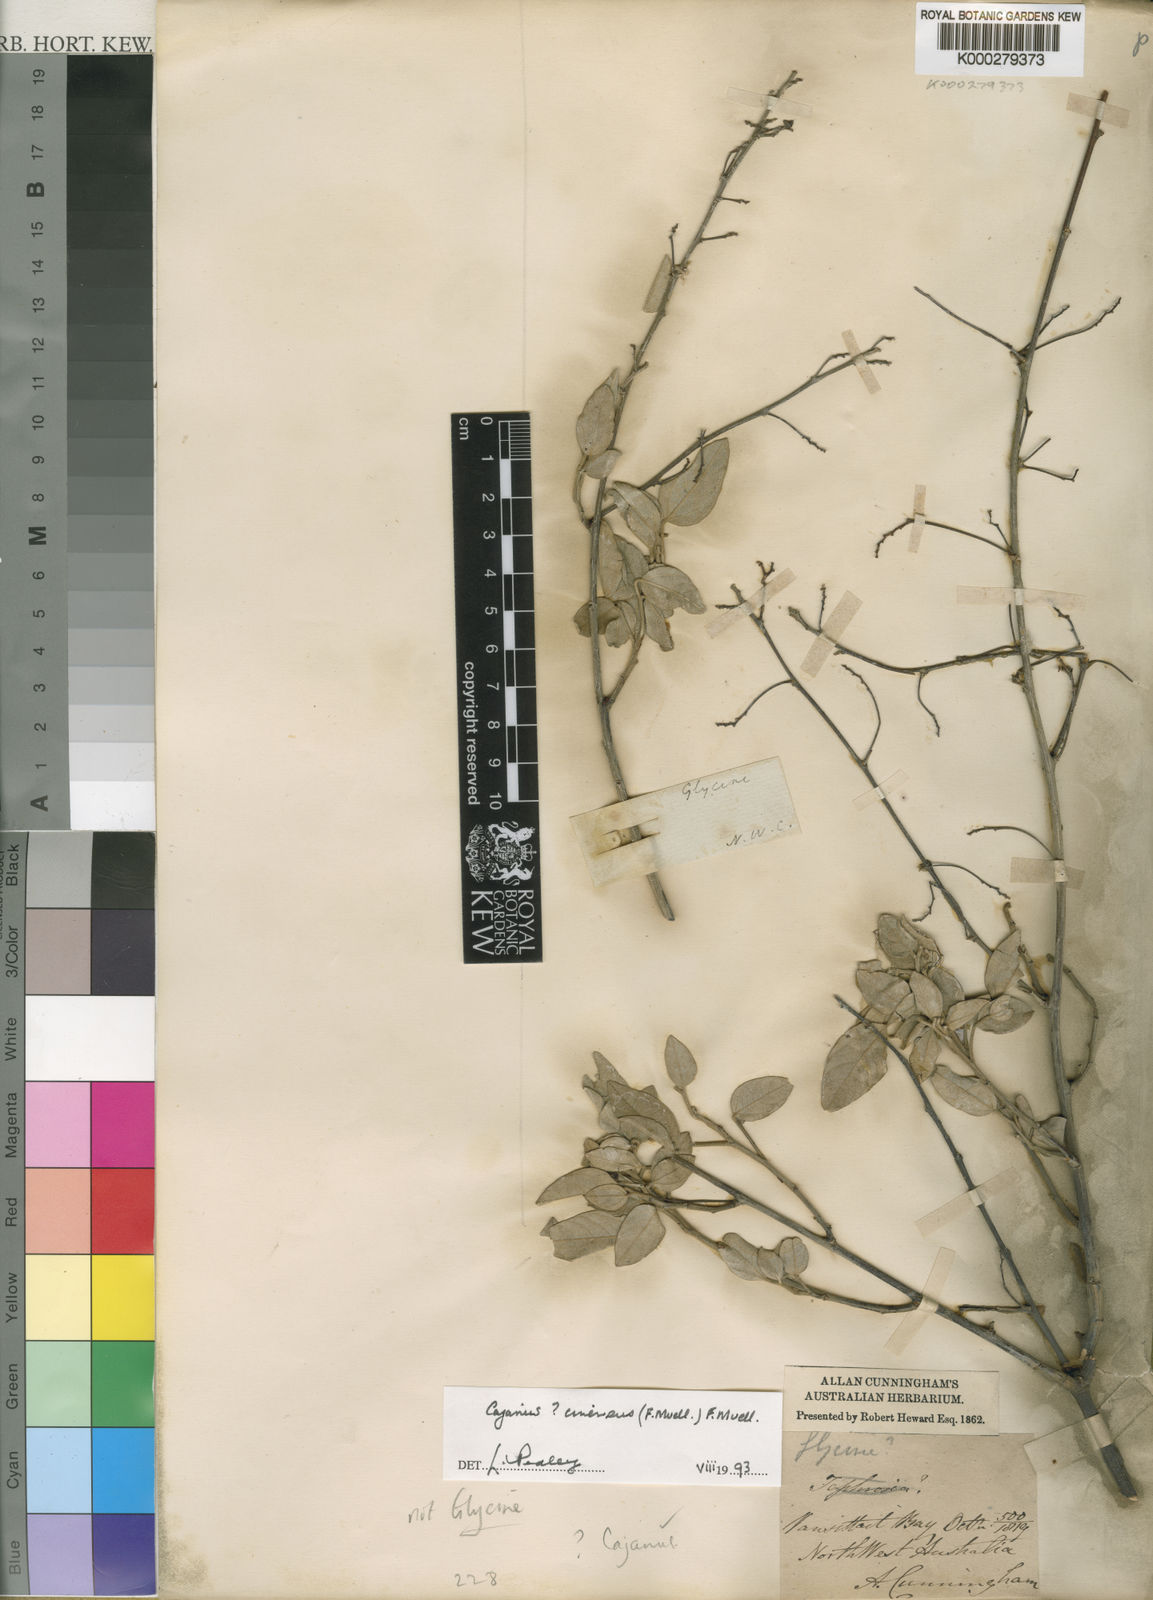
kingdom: Plantae
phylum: Tracheophyta
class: Magnoliopsida
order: Fabales
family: Fabaceae
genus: Cajanus
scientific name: Cajanus cinereus
